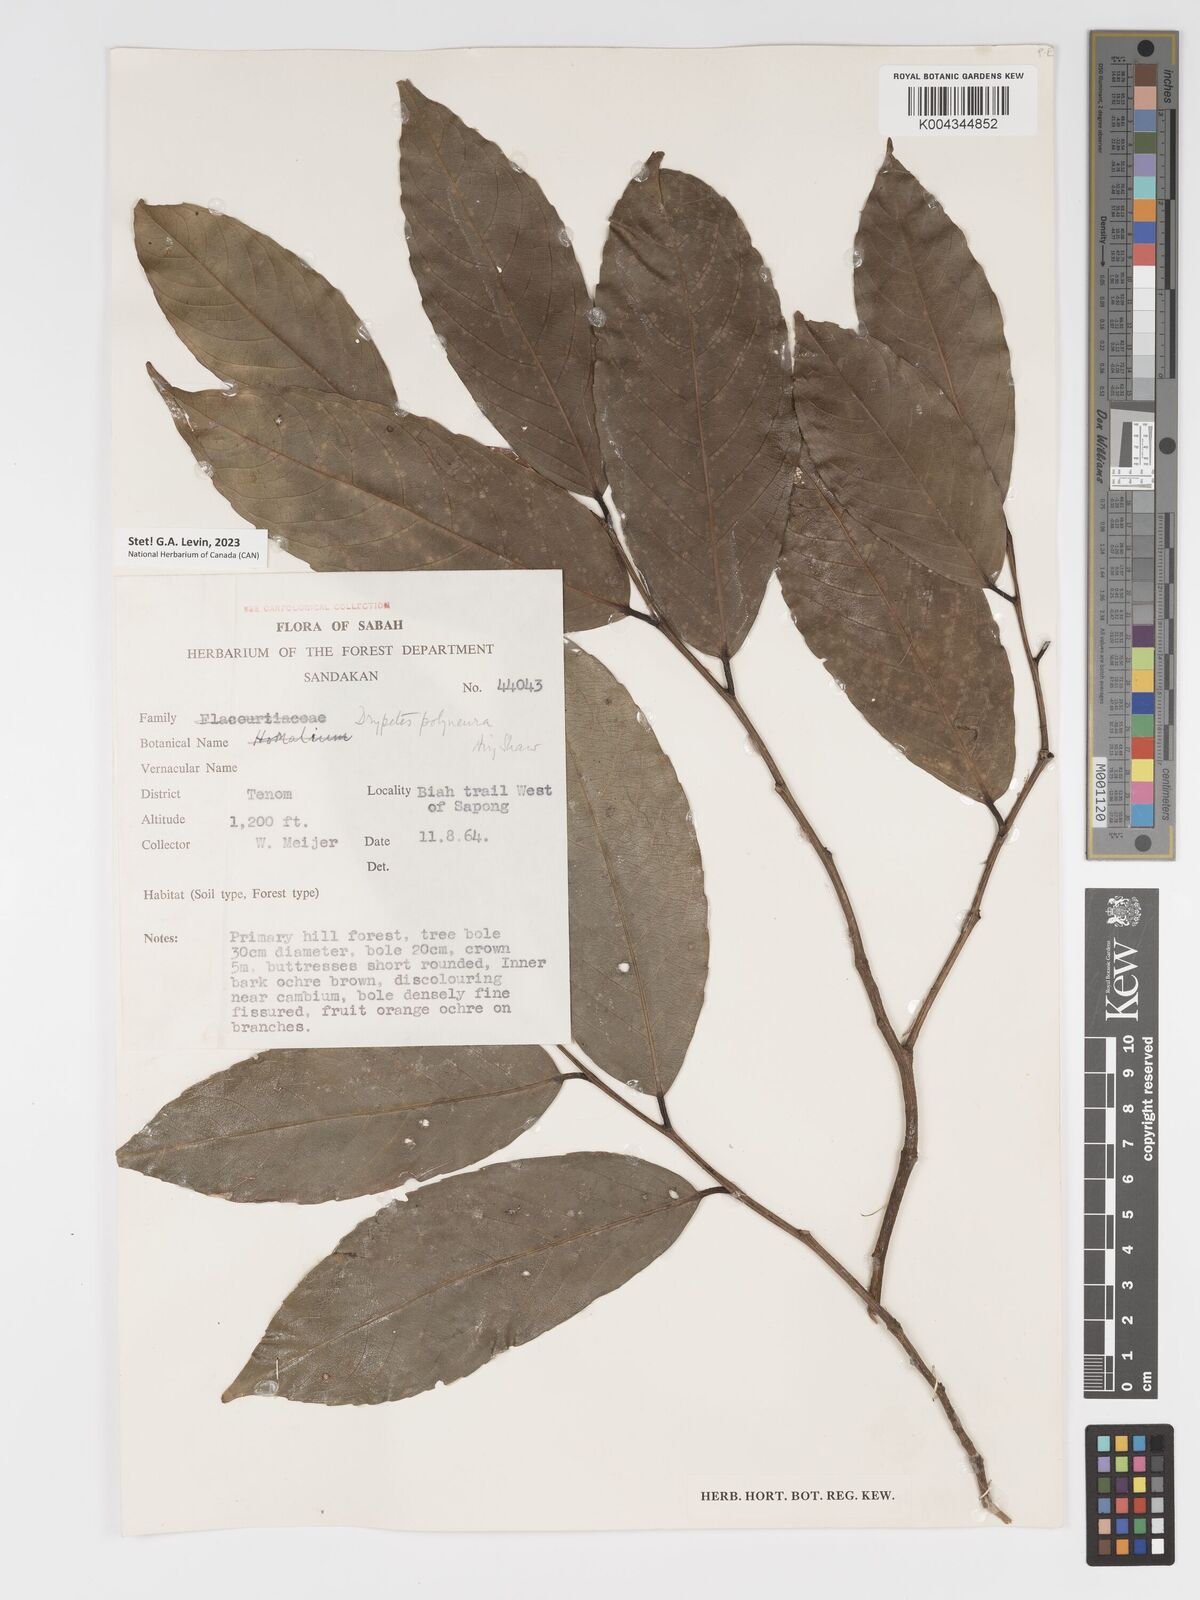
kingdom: Plantae
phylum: Tracheophyta
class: Magnoliopsida
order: Malpighiales
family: Putranjivaceae
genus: Drypetes
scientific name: Drypetes polyneura
